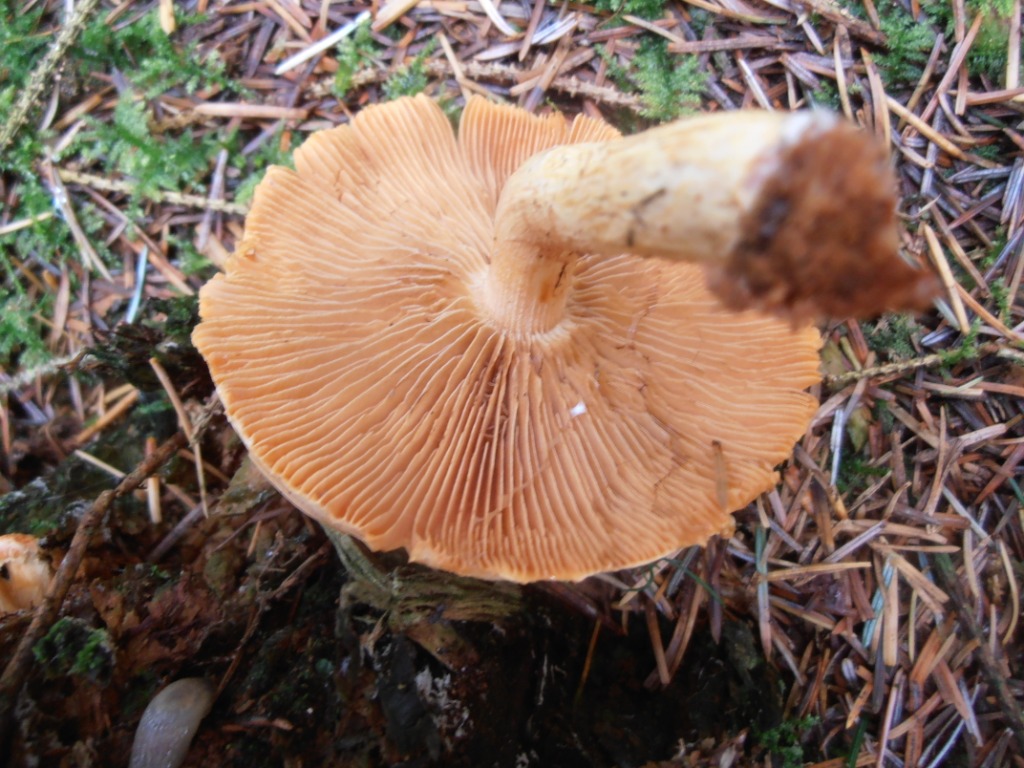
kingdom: Fungi
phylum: Basidiomycota
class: Agaricomycetes
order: Agaricales
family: Strophariaceae
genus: Pyrrhulomyces
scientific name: Pyrrhulomyces astragalinus
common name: safran-skælhat
